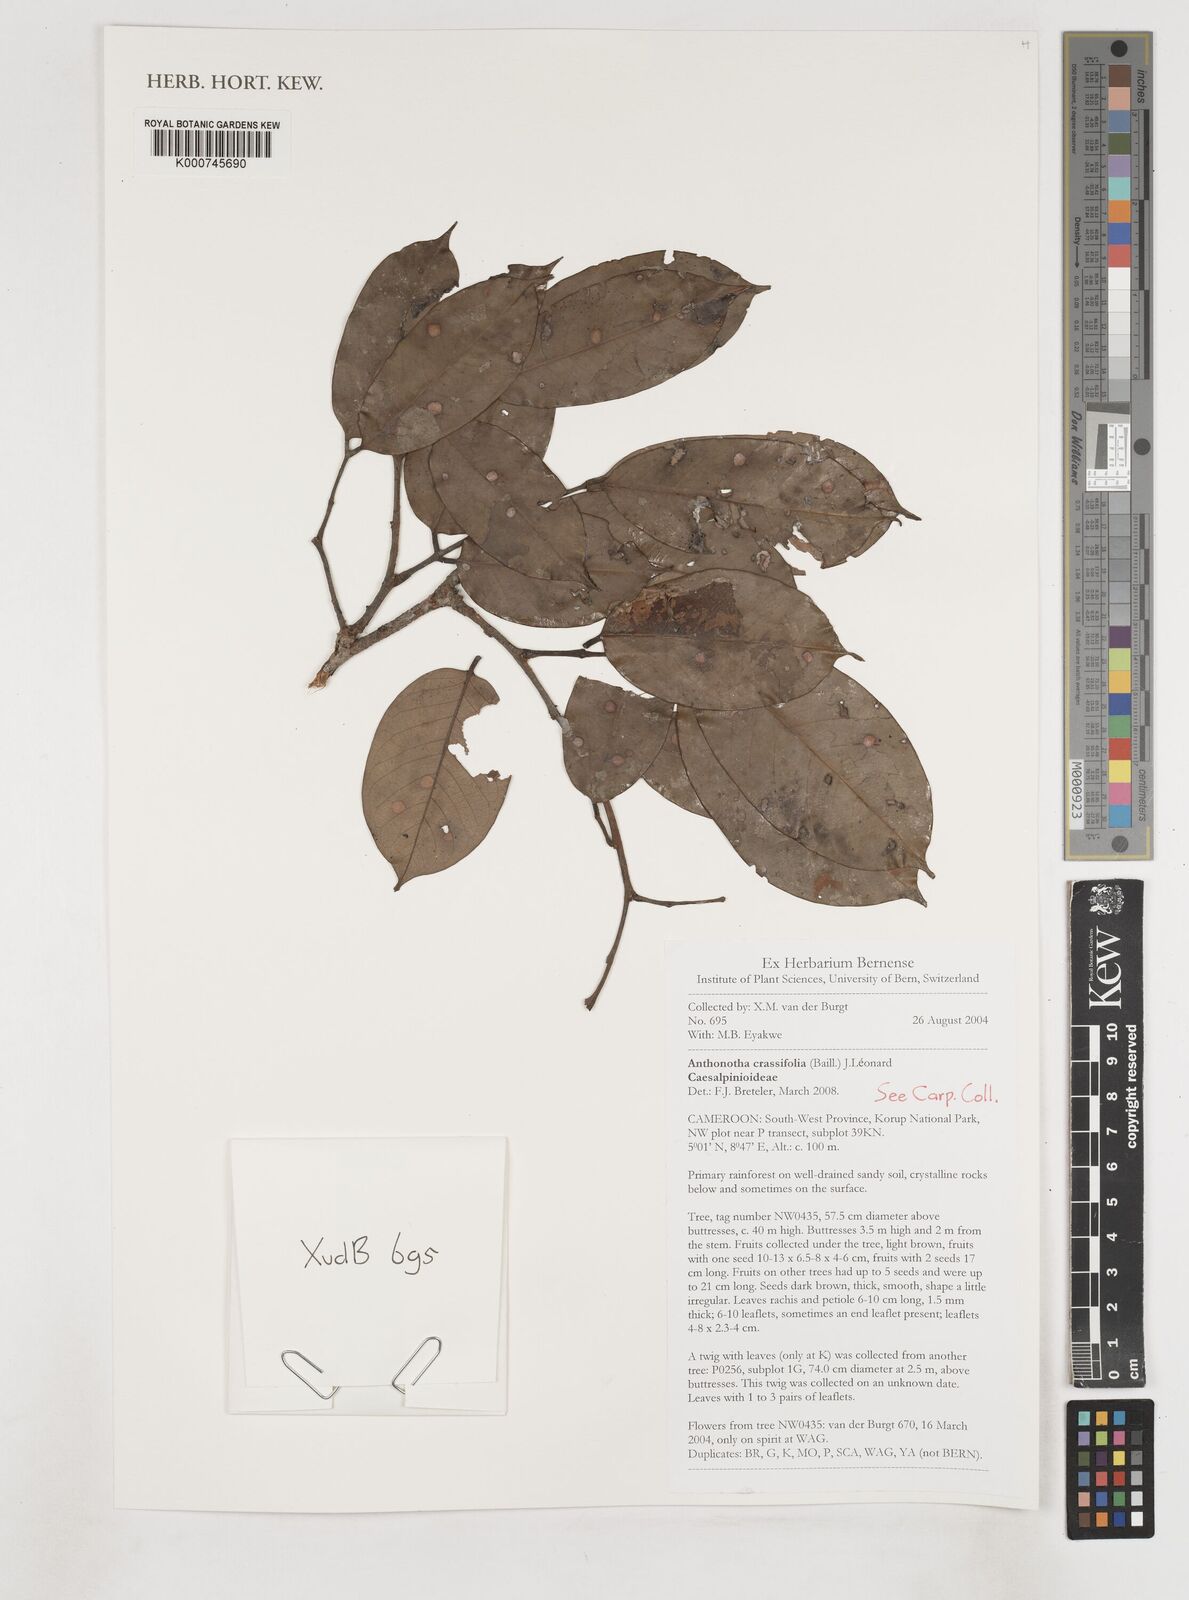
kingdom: Plantae
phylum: Tracheophyta
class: Magnoliopsida
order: Fabales
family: Fabaceae
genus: Anthonotha
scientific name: Anthonotha
